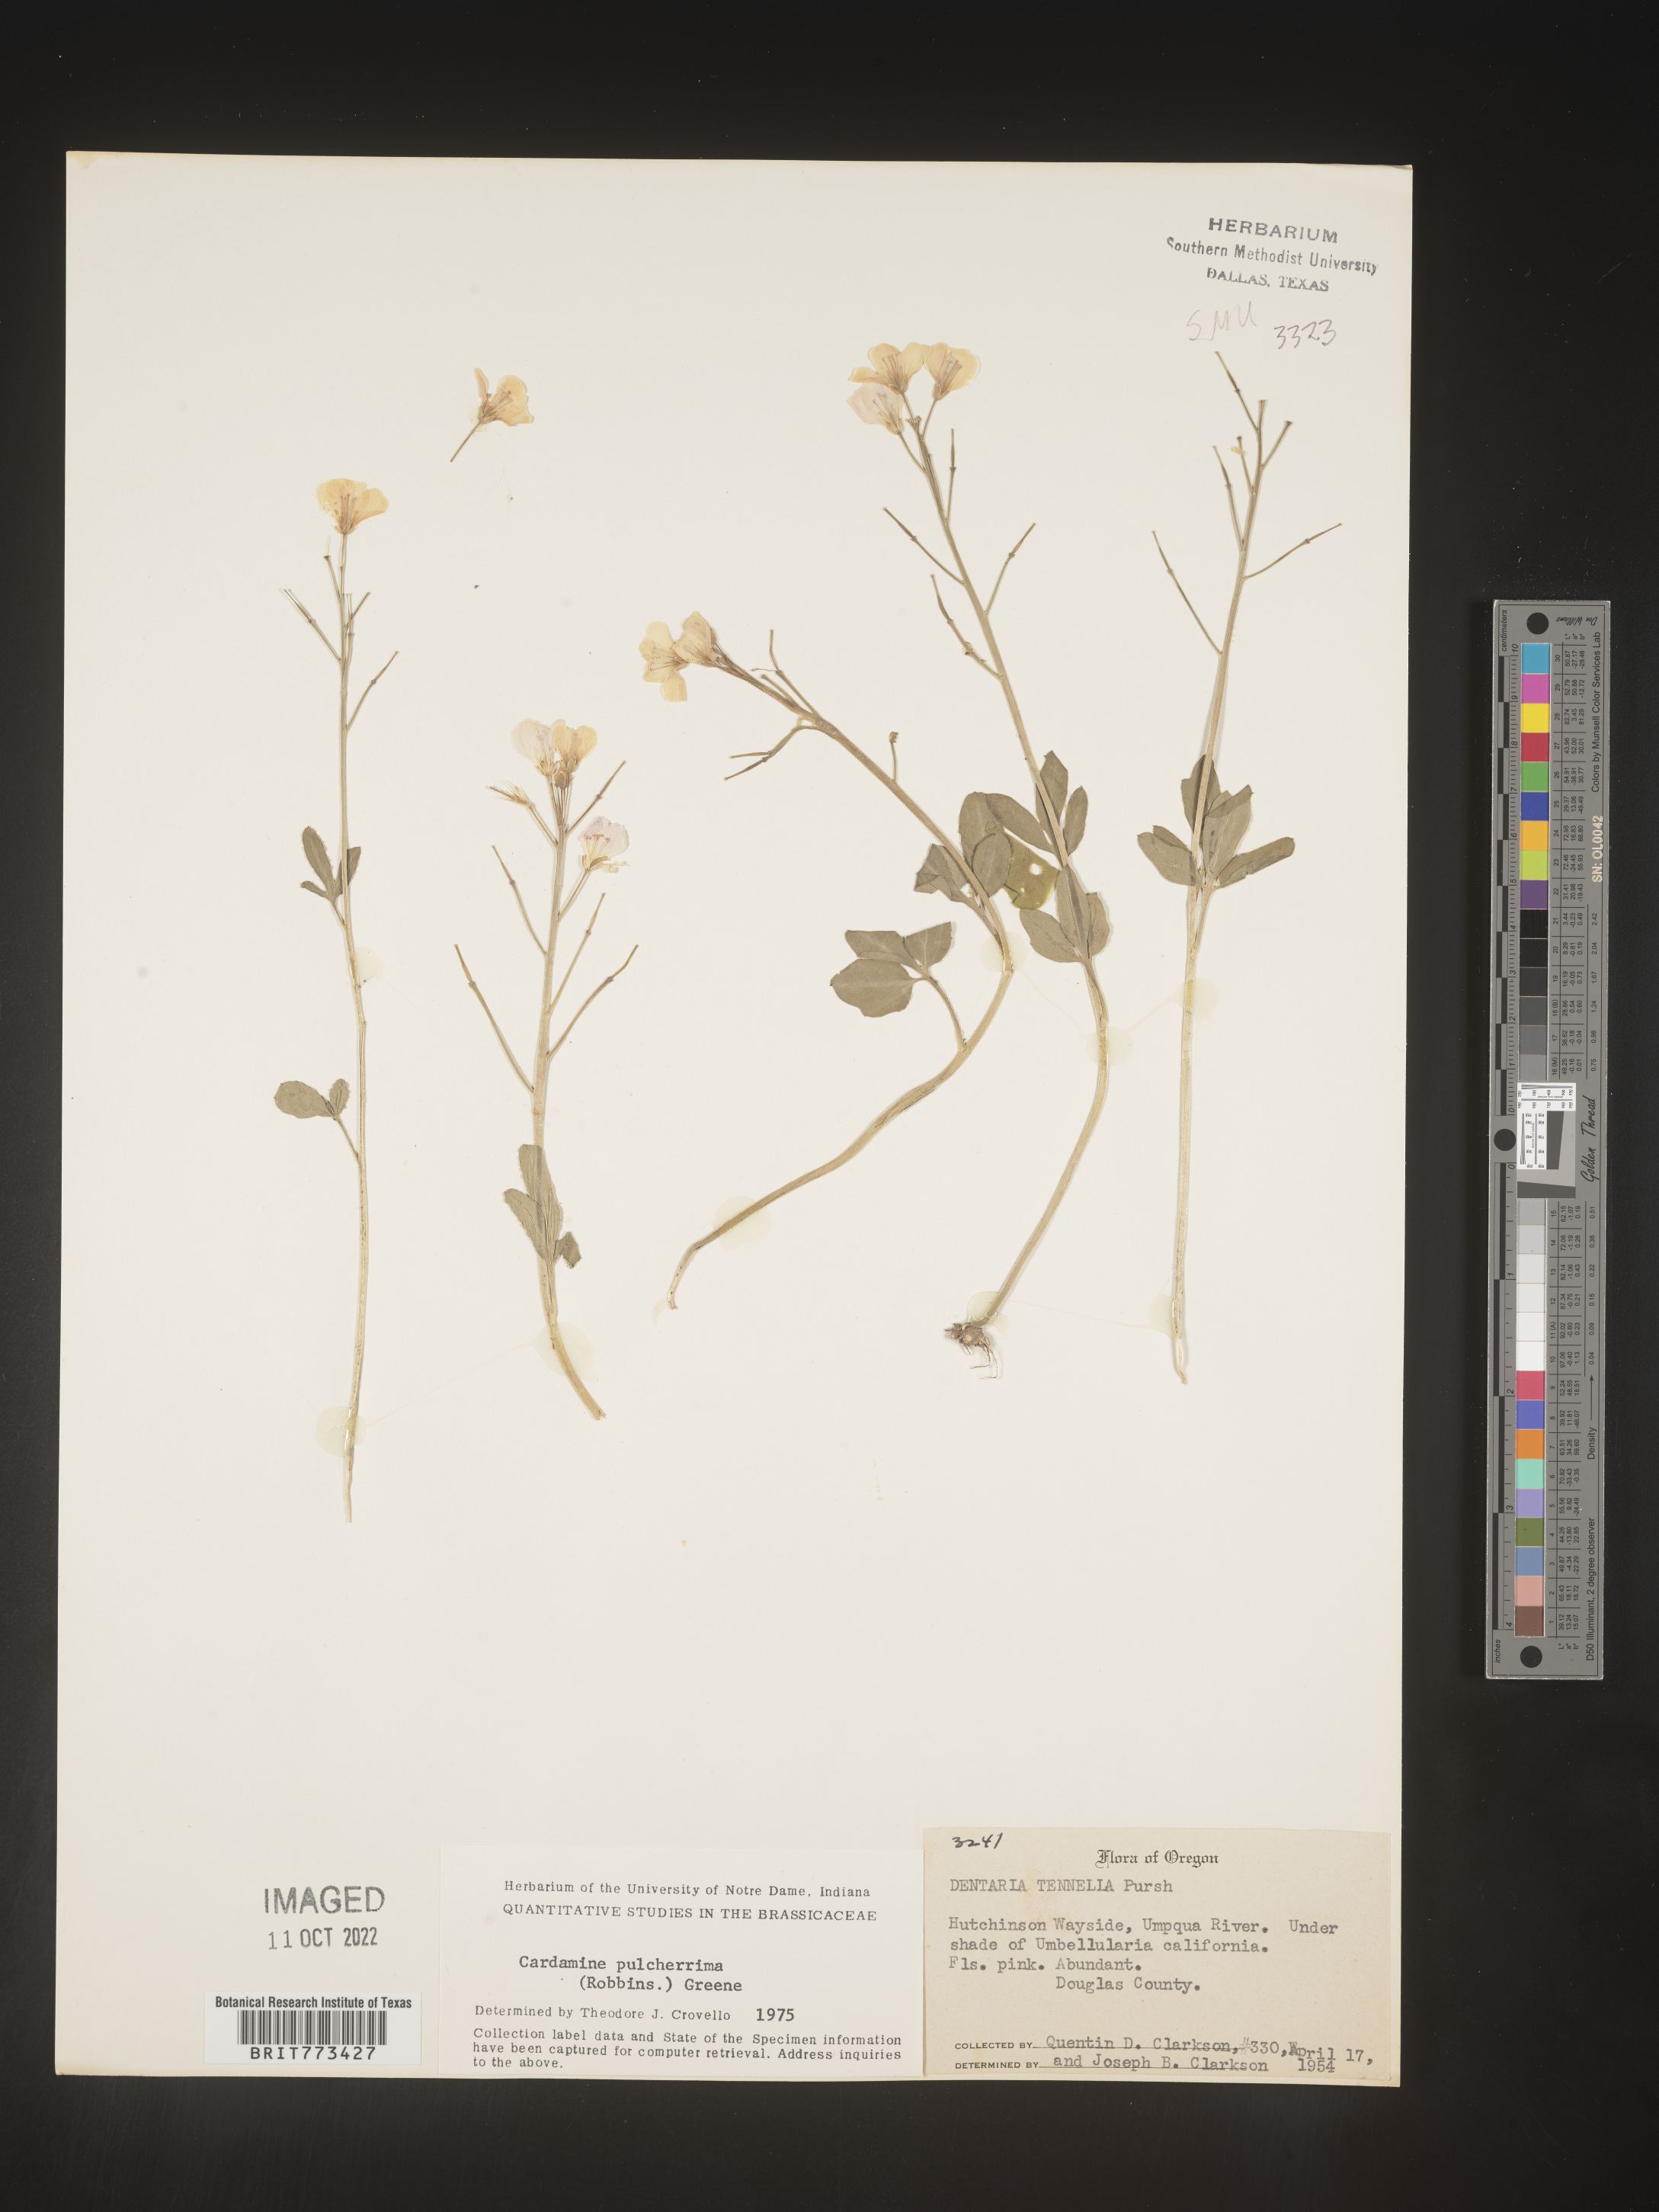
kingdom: Plantae
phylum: Tracheophyta
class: Magnoliopsida
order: Brassicales
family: Brassicaceae
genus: Cardamine
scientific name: Cardamine
